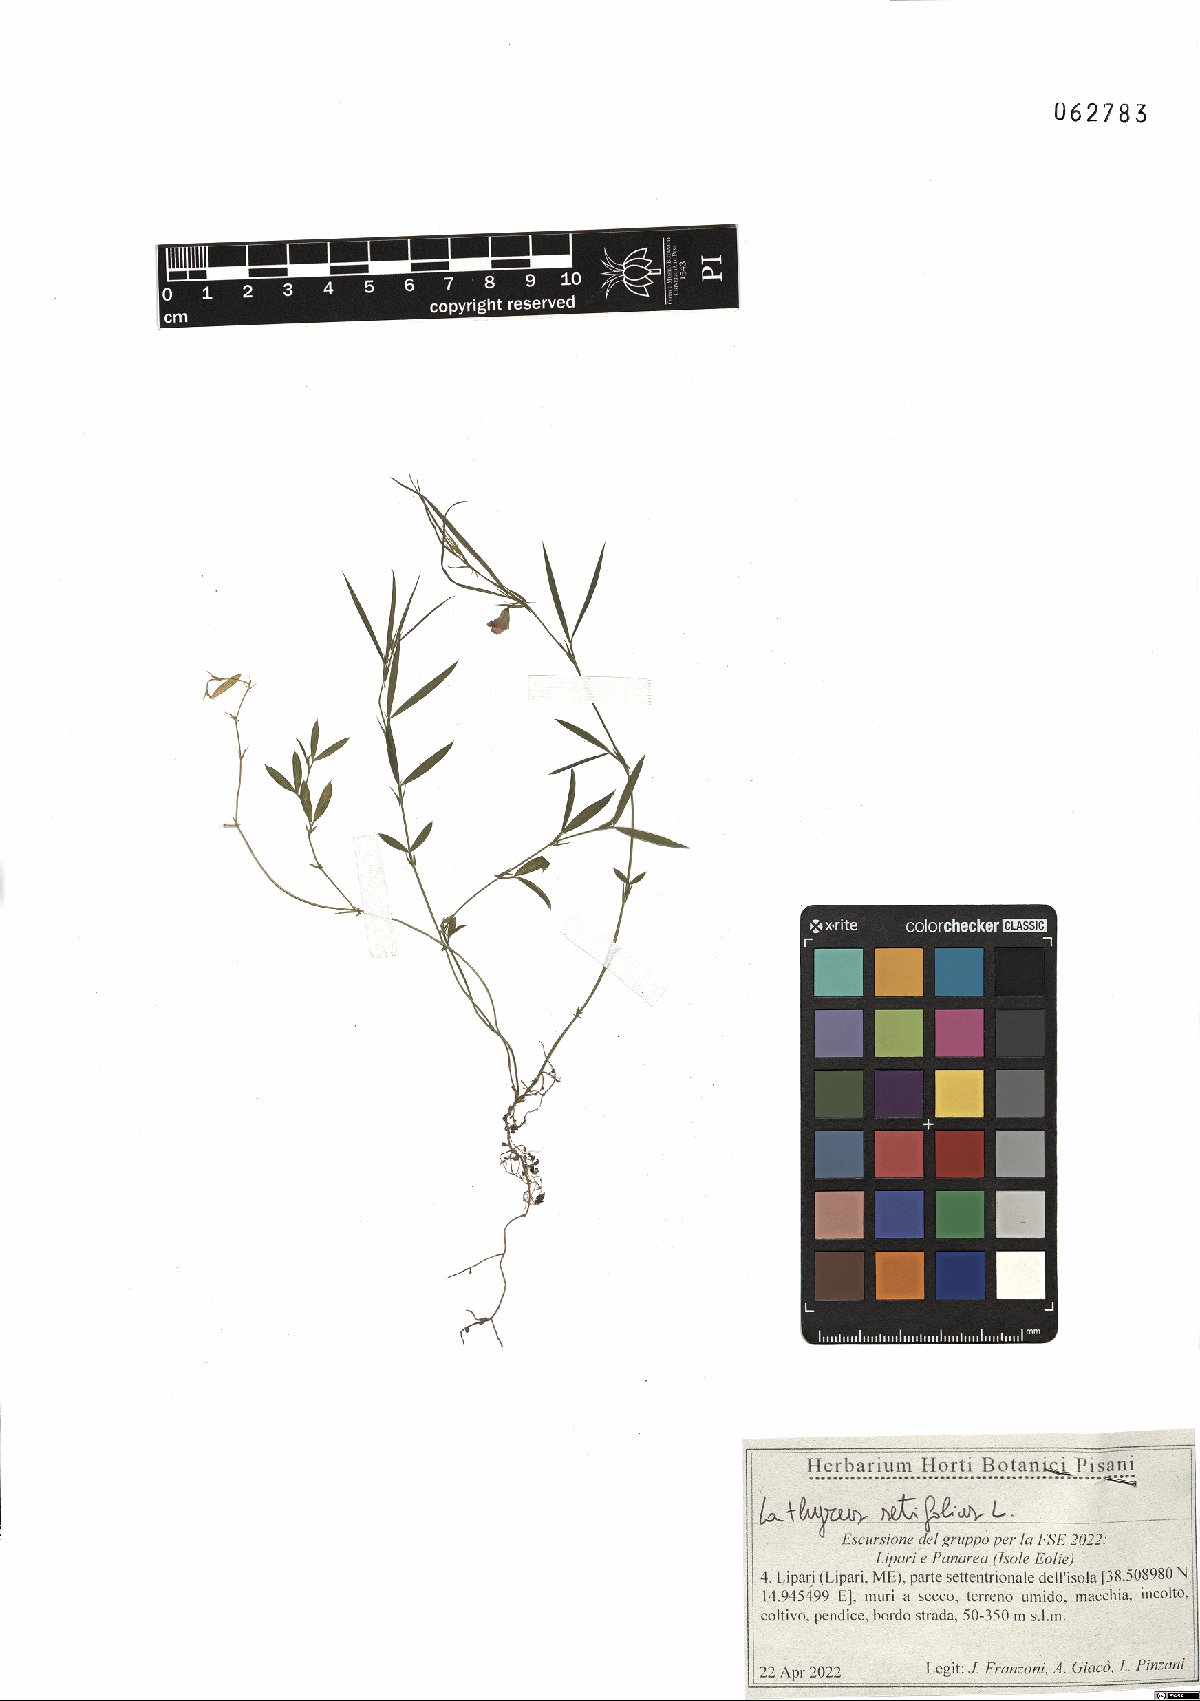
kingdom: Plantae
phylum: Tracheophyta
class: Magnoliopsida
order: Fabales
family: Fabaceae
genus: Lathyrus
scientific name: Lathyrus setifolius
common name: Brown vetchling
